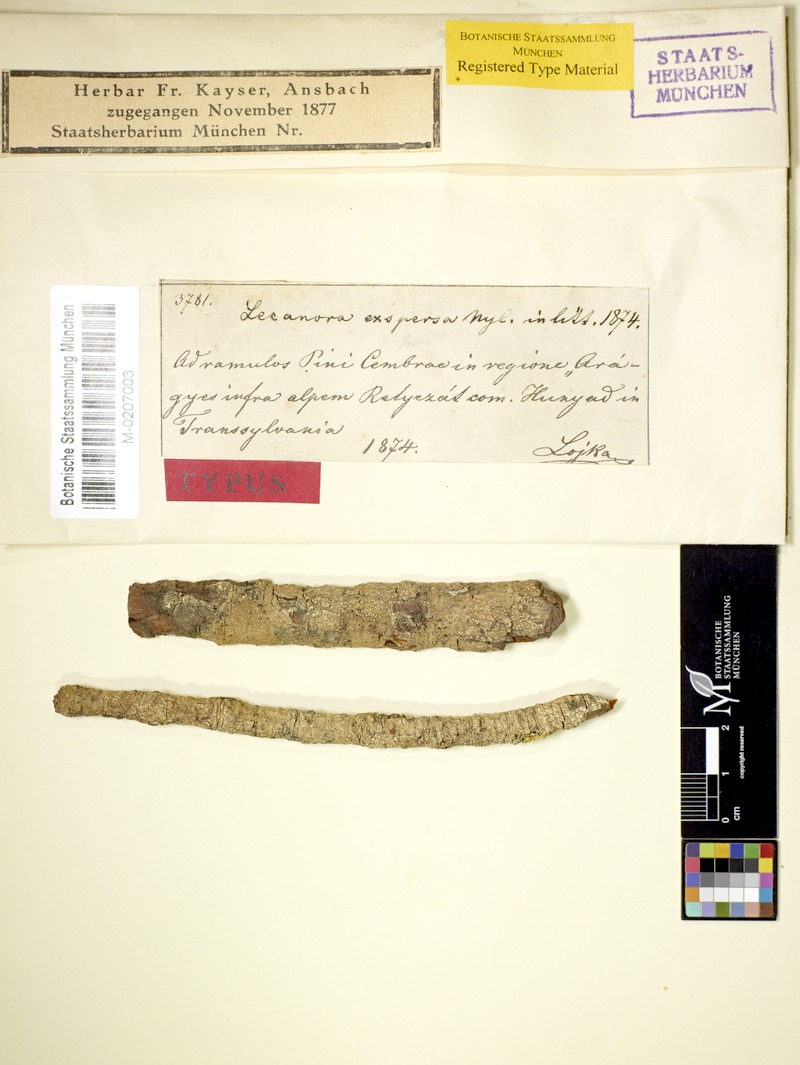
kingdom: Fungi
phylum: Ascomycota
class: Lecanoromycetes
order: Lecanorales
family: Lecanoraceae
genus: Lecanora
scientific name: Lecanora exspersa
